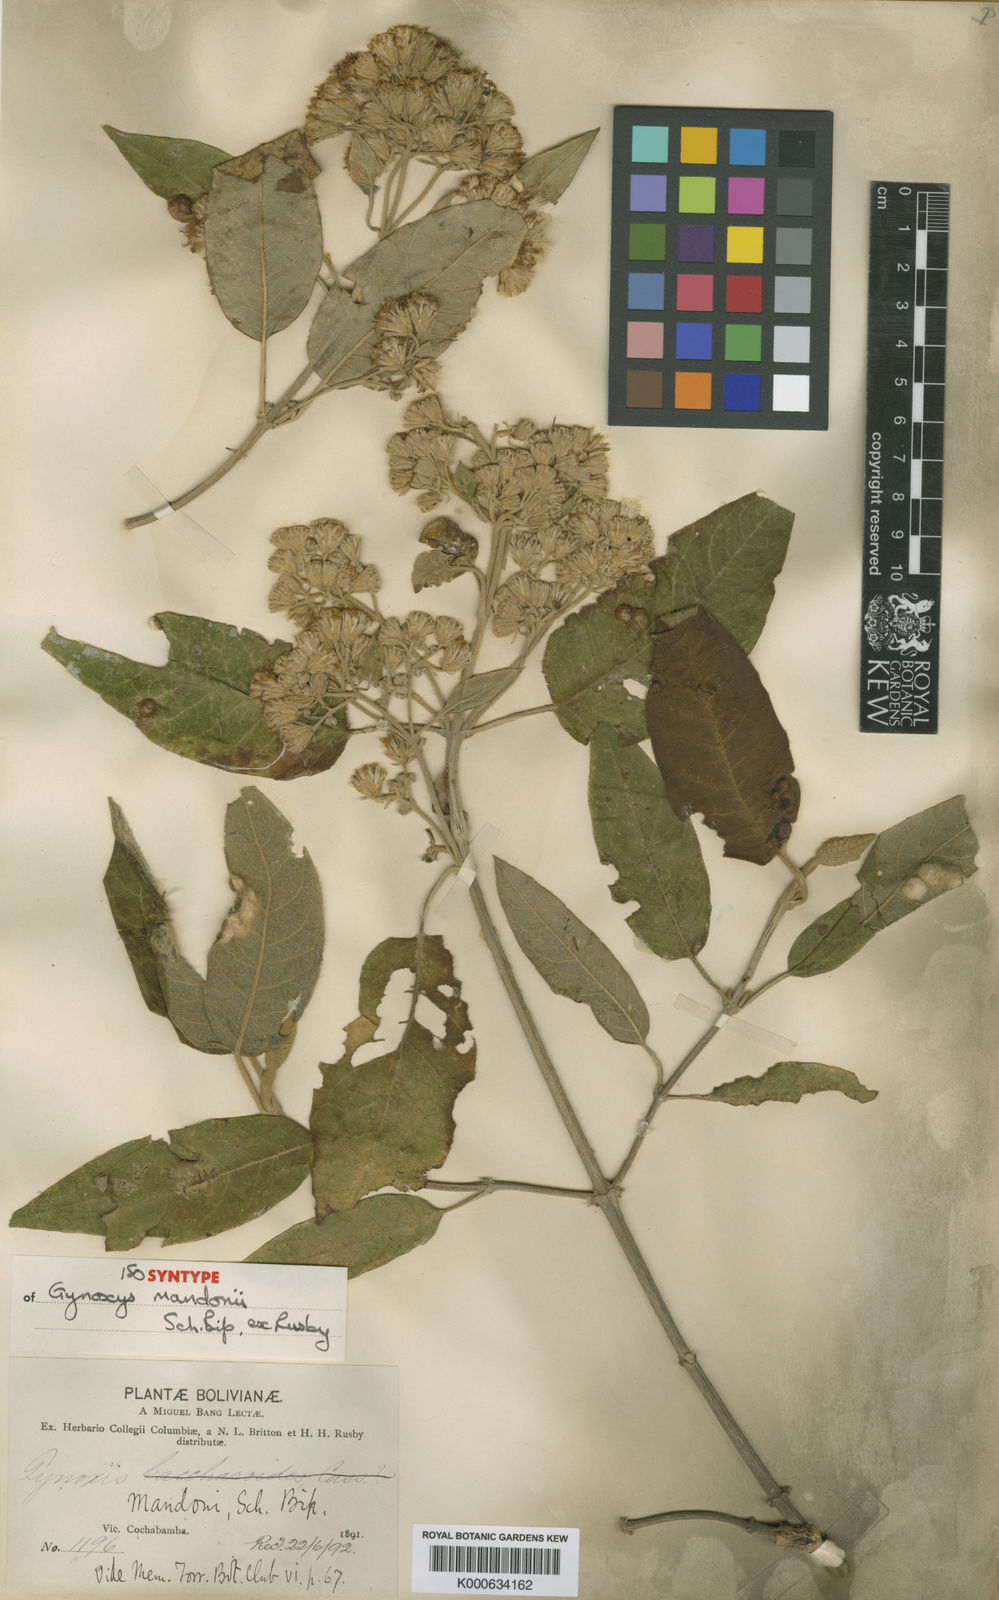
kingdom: Plantae
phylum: Tracheophyta
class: Magnoliopsida
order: Asterales
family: Asteraceae
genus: Gynoxys
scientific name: Gynoxys mandonii
